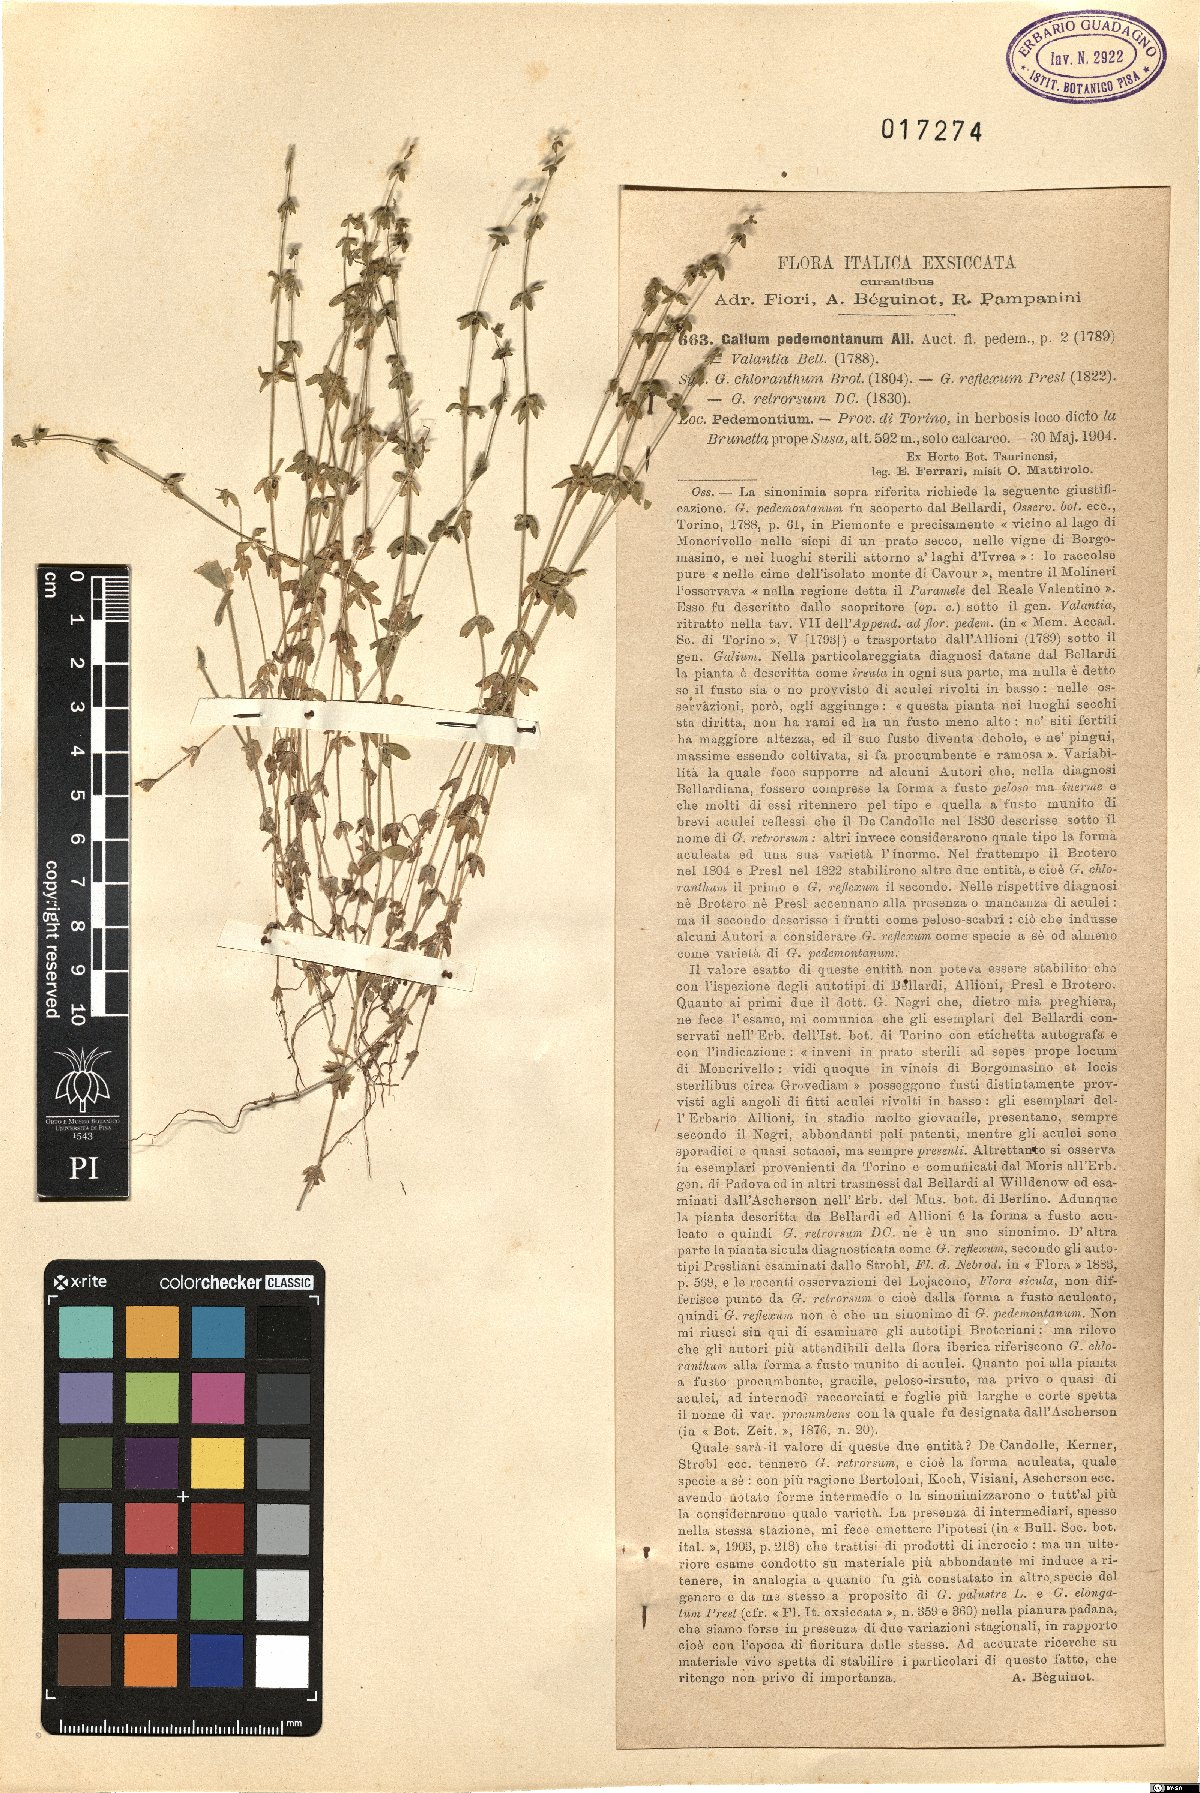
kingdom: Plantae
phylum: Tracheophyta
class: Magnoliopsida
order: Gentianales
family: Rubiaceae
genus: Cruciata
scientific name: Cruciata pedemontana
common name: Piedmont bedstraw
